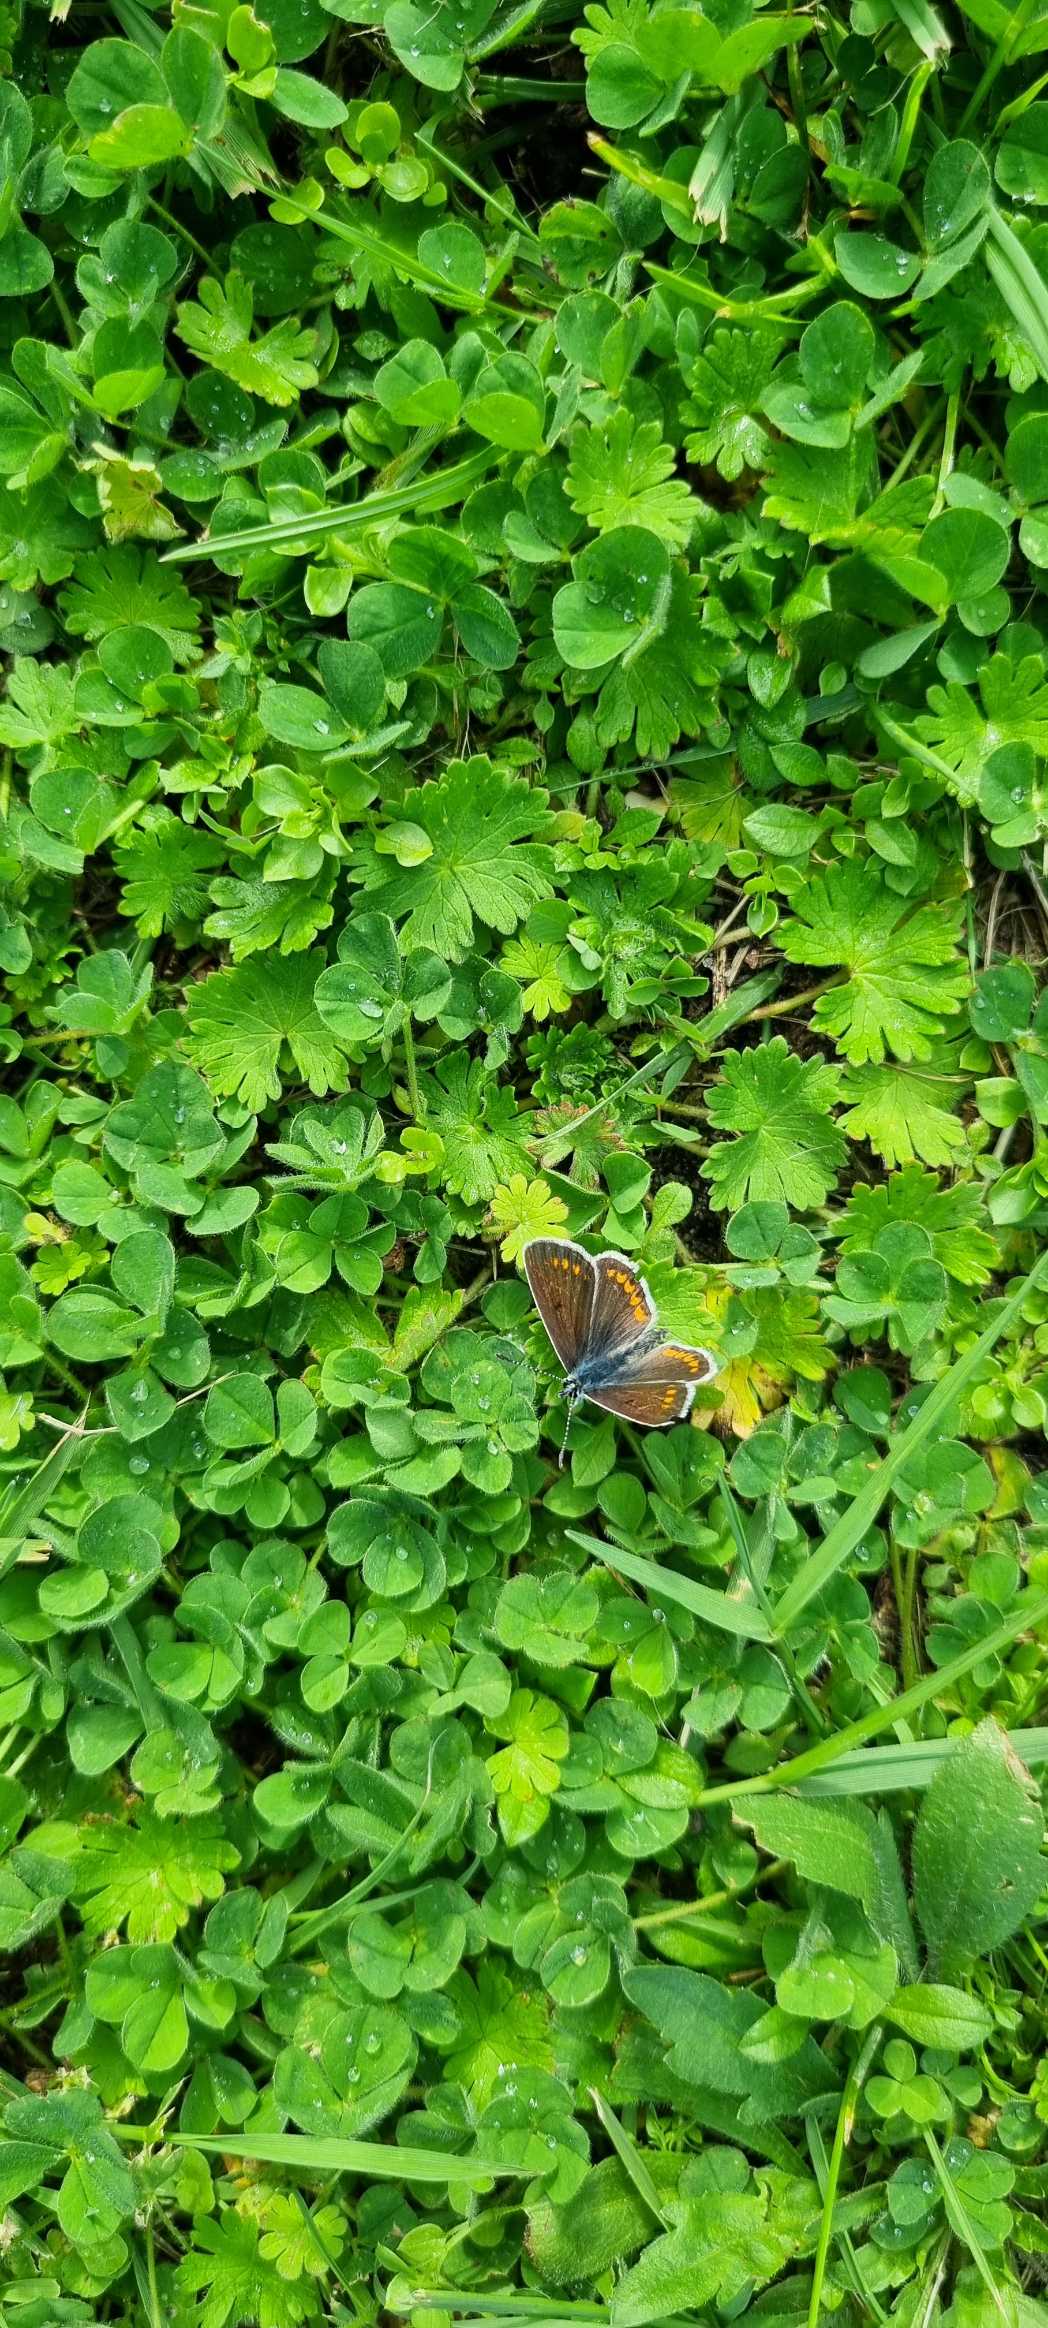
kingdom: Animalia
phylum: Arthropoda
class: Insecta
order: Lepidoptera
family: Lycaenidae
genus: Aricia
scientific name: Aricia agestis
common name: Rødplettet blåfugl
